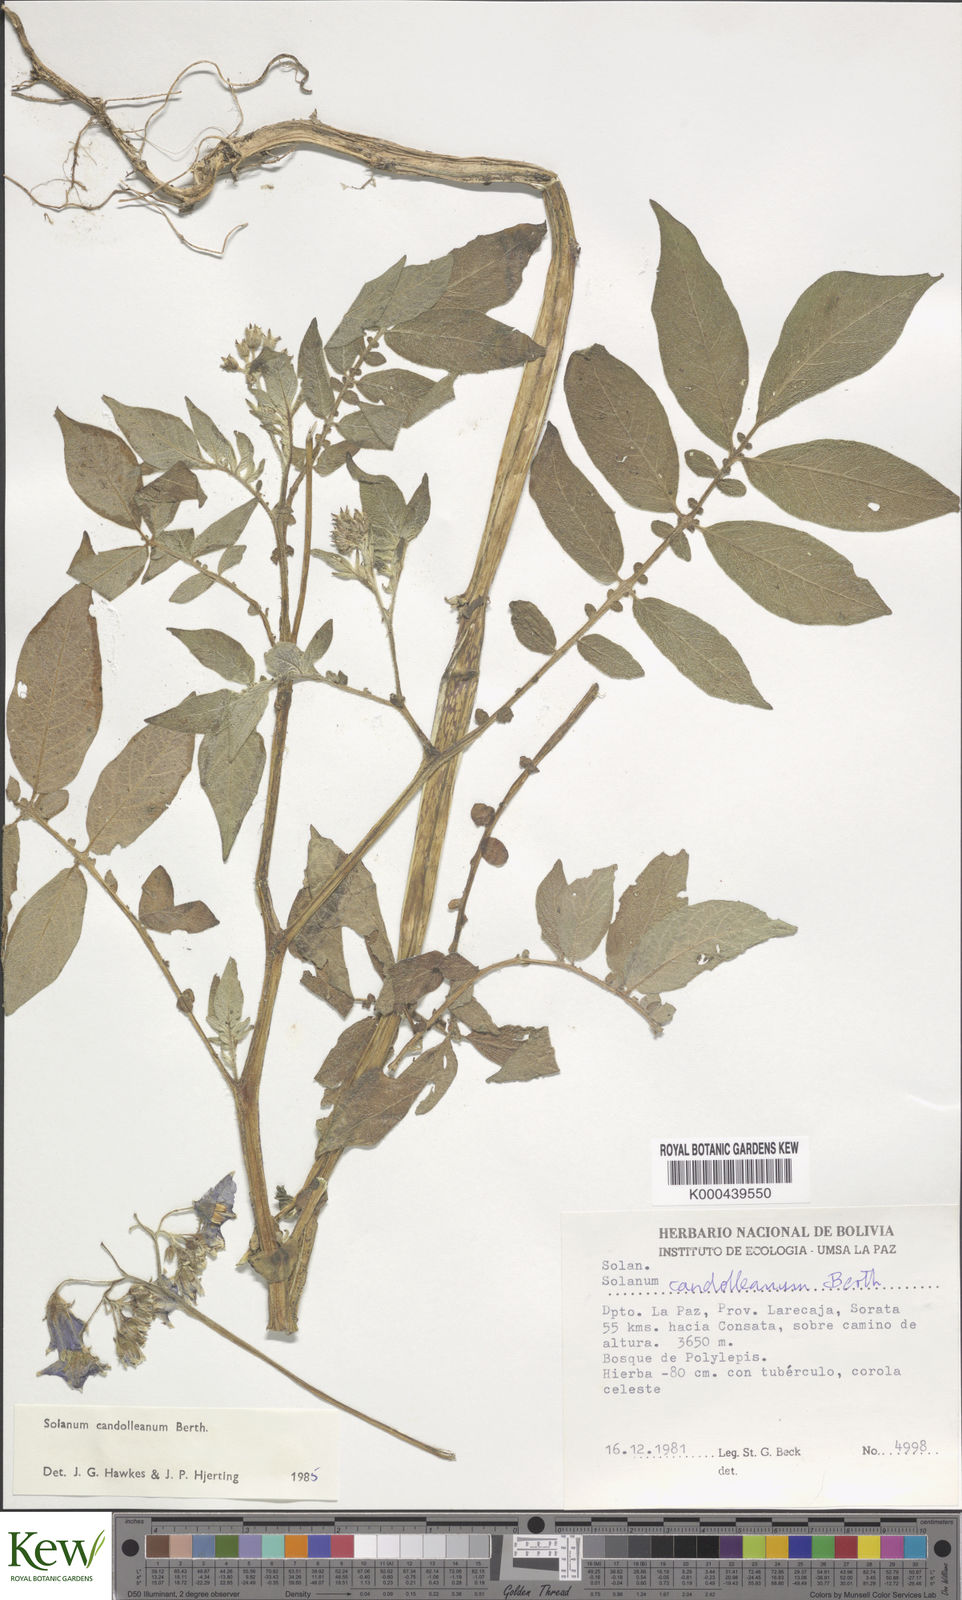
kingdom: Plantae
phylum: Tracheophyta
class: Magnoliopsida
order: Solanales
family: Solanaceae
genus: Solanum
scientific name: Solanum brevicaule
